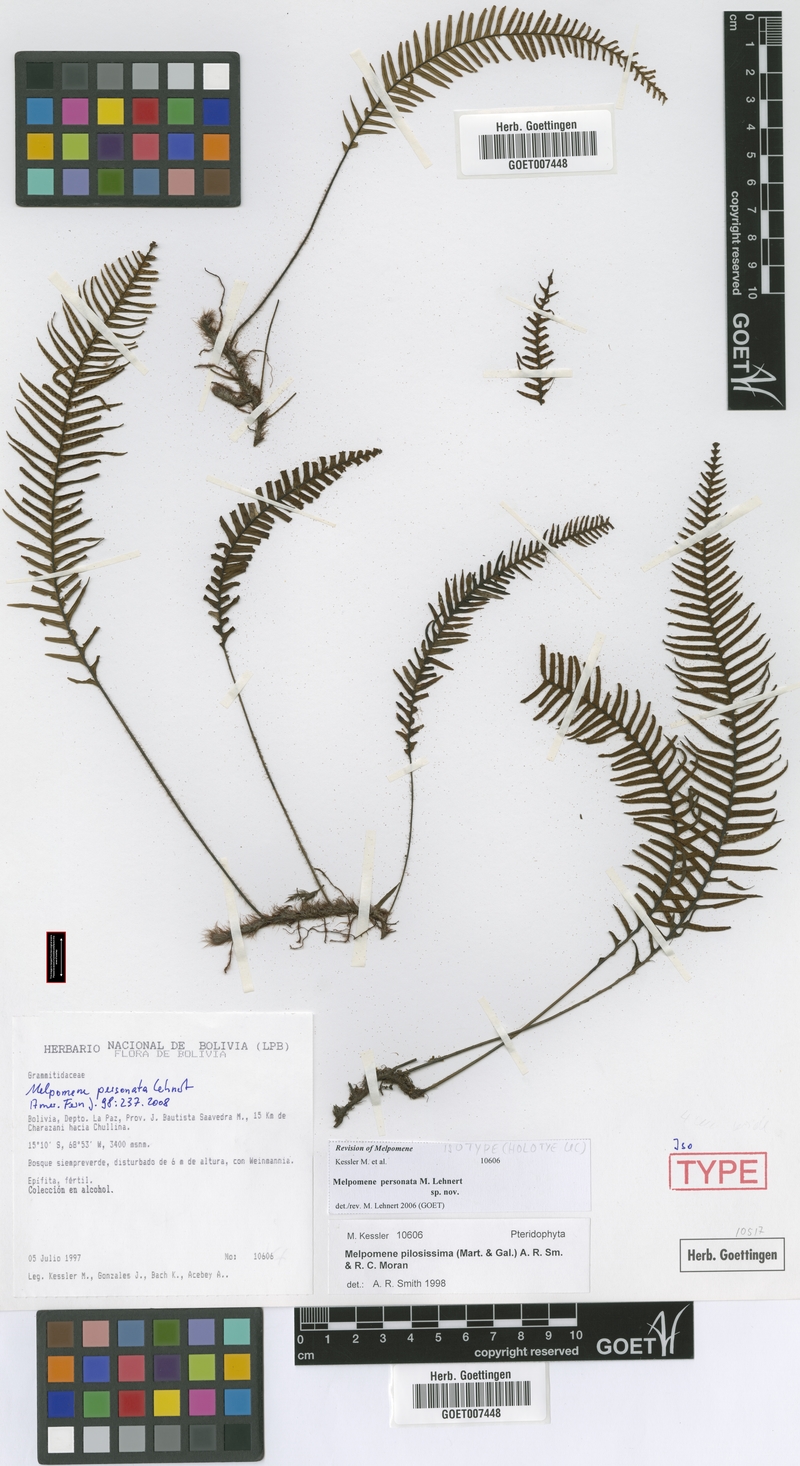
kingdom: Plantae
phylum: Tracheophyta
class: Polypodiopsida
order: Polypodiales
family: Polypodiaceae
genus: Melpomene
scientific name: Melpomene personata
